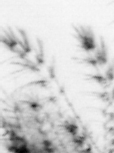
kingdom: Animalia
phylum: Arthropoda
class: Maxillopoda
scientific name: Maxillopoda
